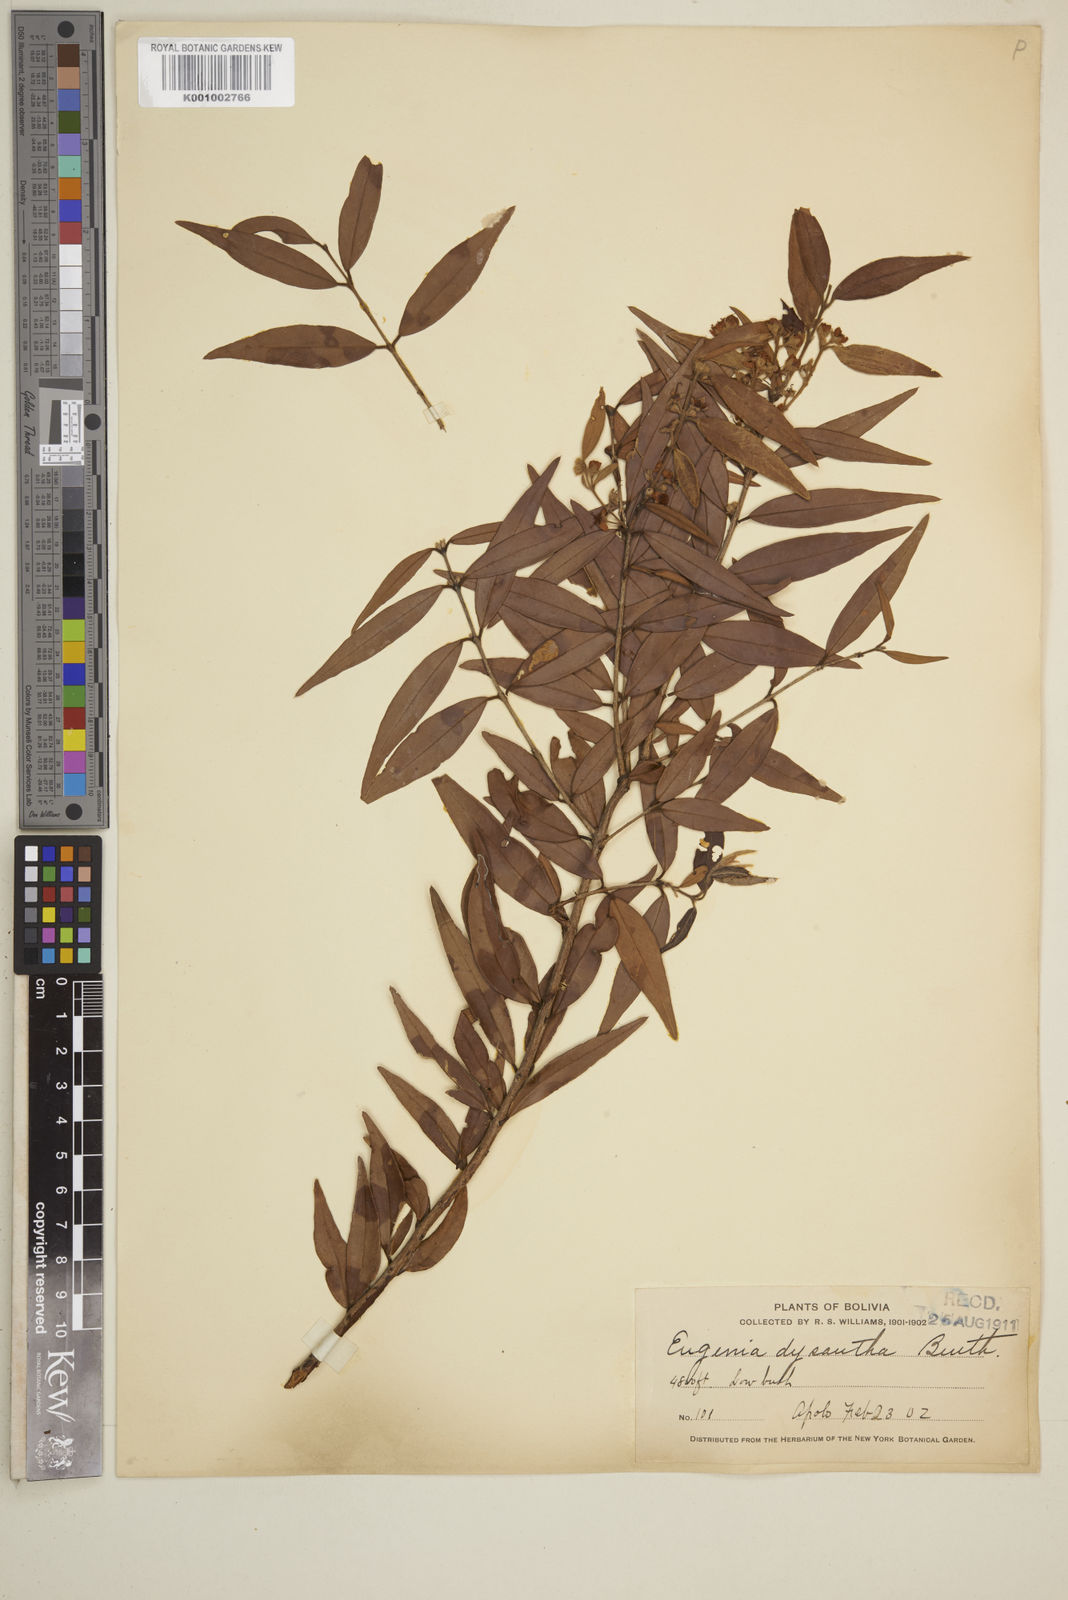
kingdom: Plantae
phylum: Tracheophyta
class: Magnoliopsida
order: Myrtales
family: Myrtaceae
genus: Eugenia
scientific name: Eugenia biflora
